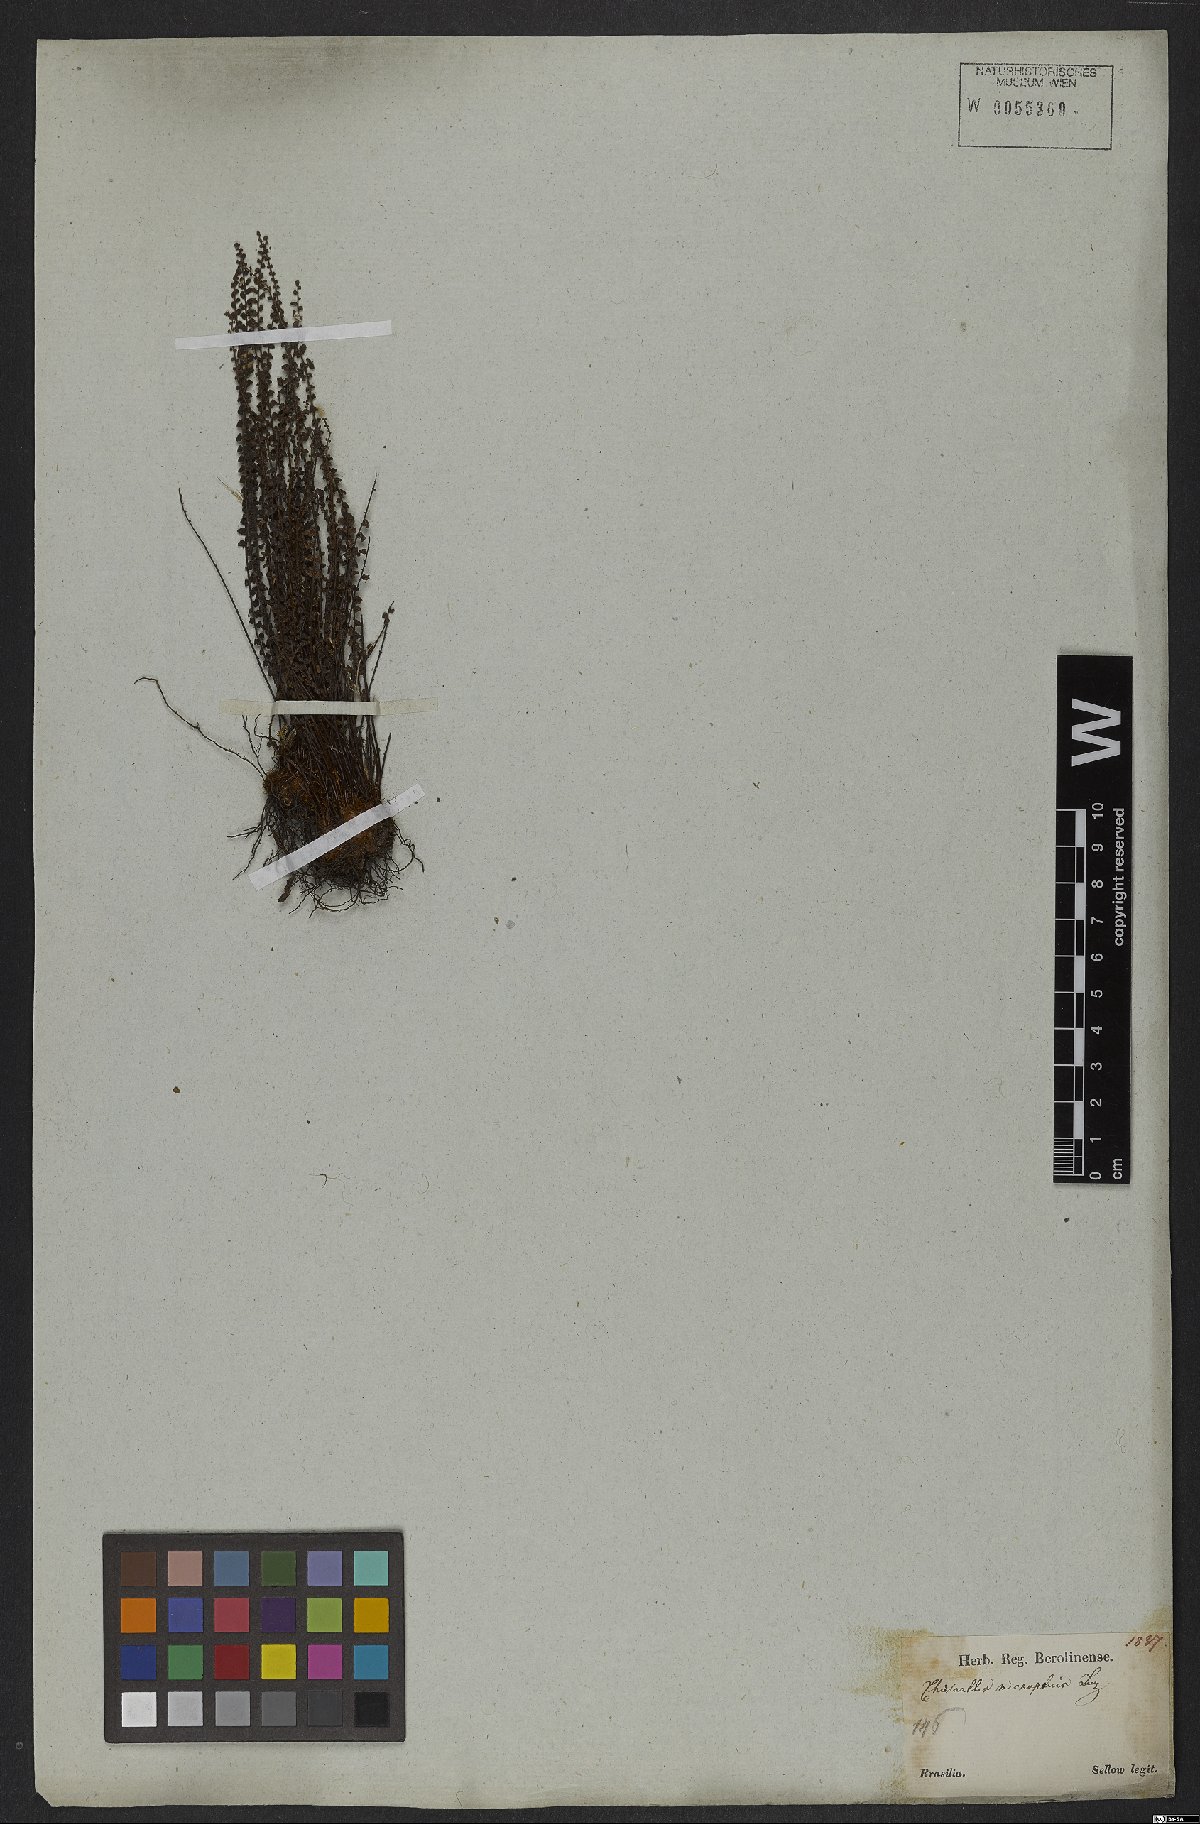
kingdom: Plantae
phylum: Tracheophyta
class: Polypodiopsida
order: Polypodiales
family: Pteridaceae
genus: Cheilanthes
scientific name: Cheilanthes micropteris
